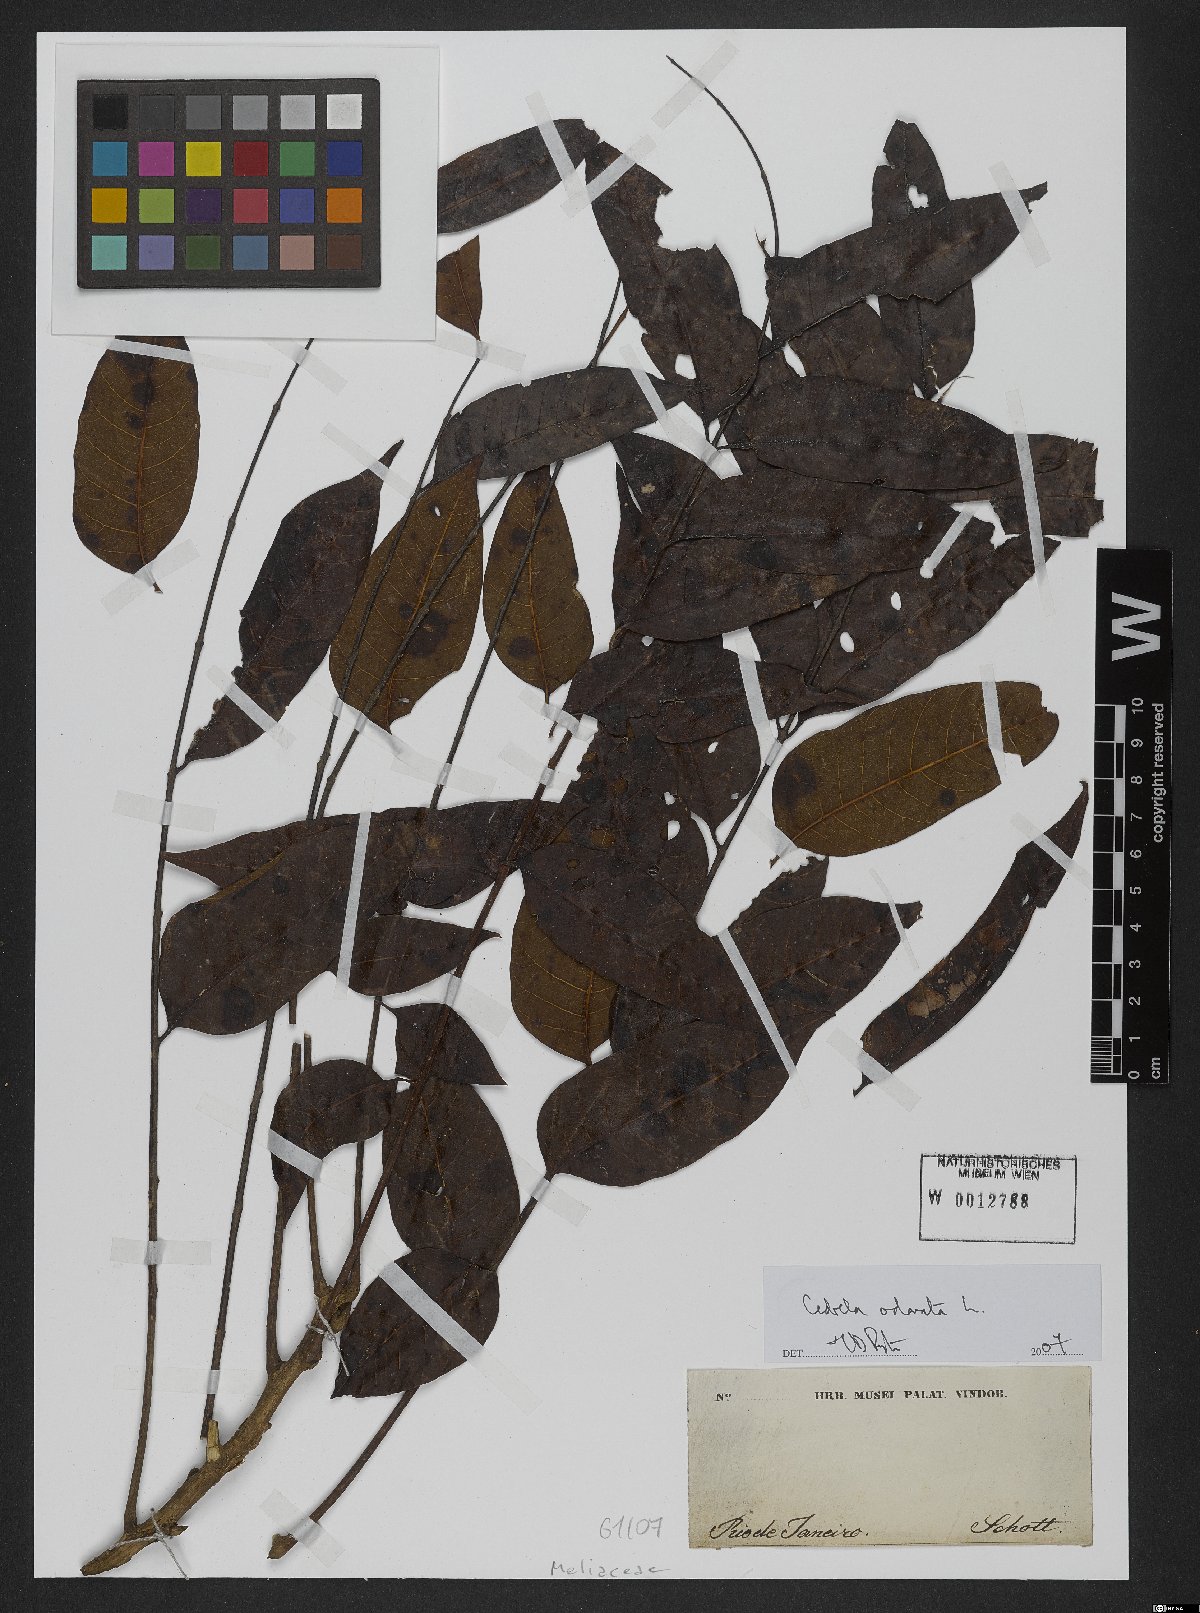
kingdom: Plantae
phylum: Tracheophyta
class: Magnoliopsida
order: Sapindales
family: Meliaceae
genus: Cedrela
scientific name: Cedrela odorata
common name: Red cedar
